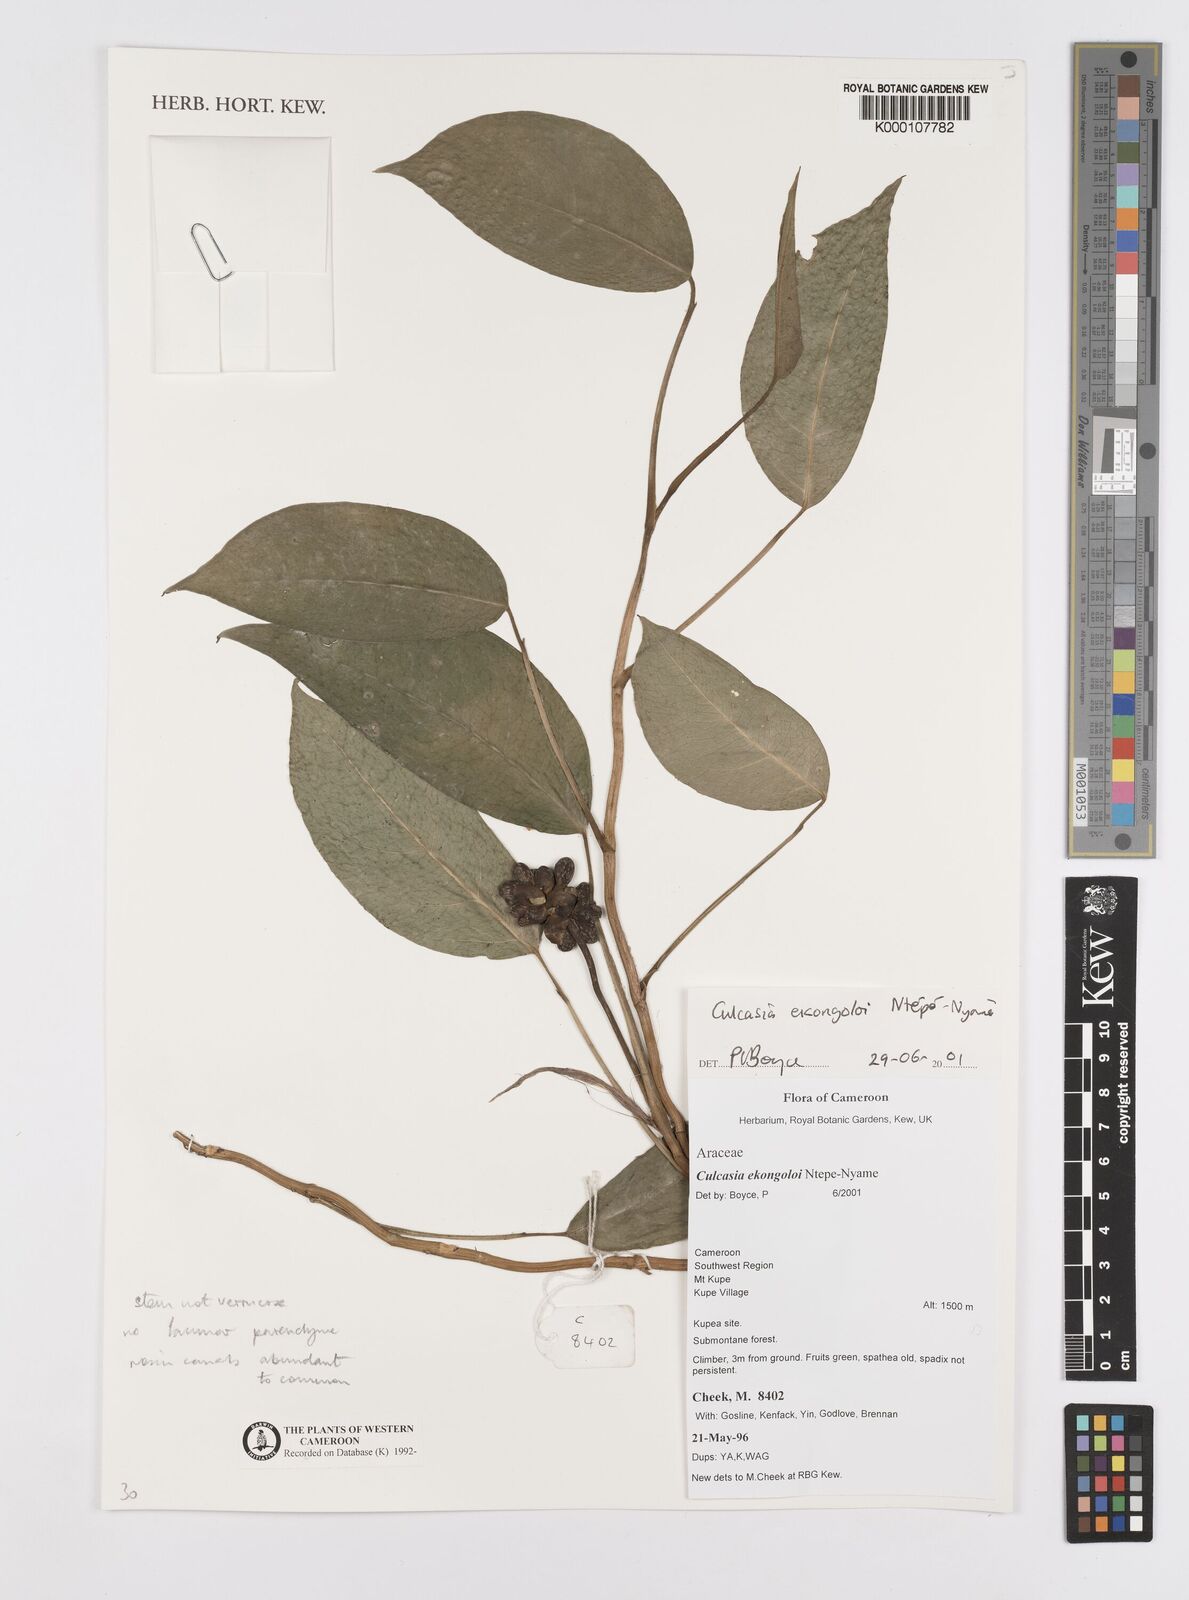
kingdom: Plantae
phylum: Tracheophyta
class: Liliopsida
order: Alismatales
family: Araceae
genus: Culcasia
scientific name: Culcasia ekongoloi
